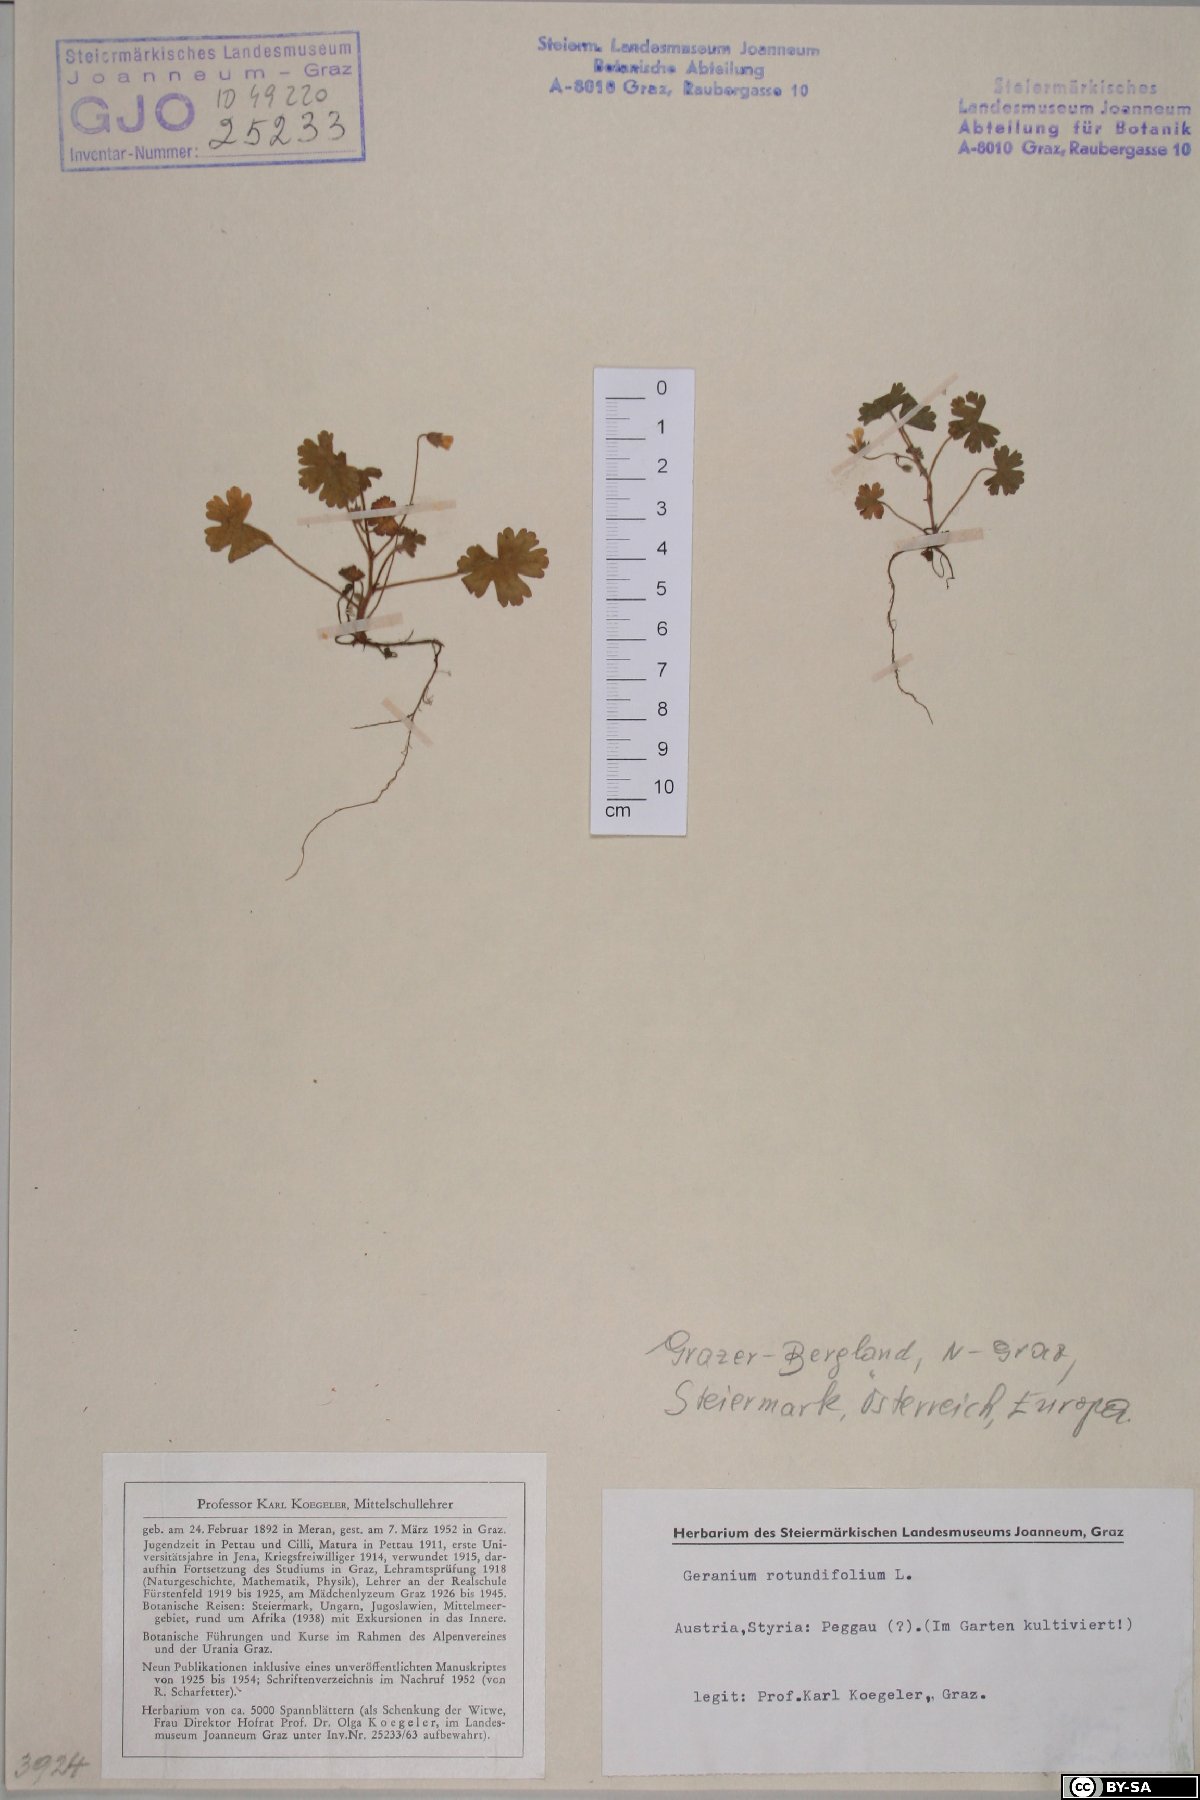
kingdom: Plantae
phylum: Tracheophyta
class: Magnoliopsida
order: Geraniales
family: Geraniaceae
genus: Geranium
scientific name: Geranium rotundifolium
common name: Round-leaved crane's-bill
